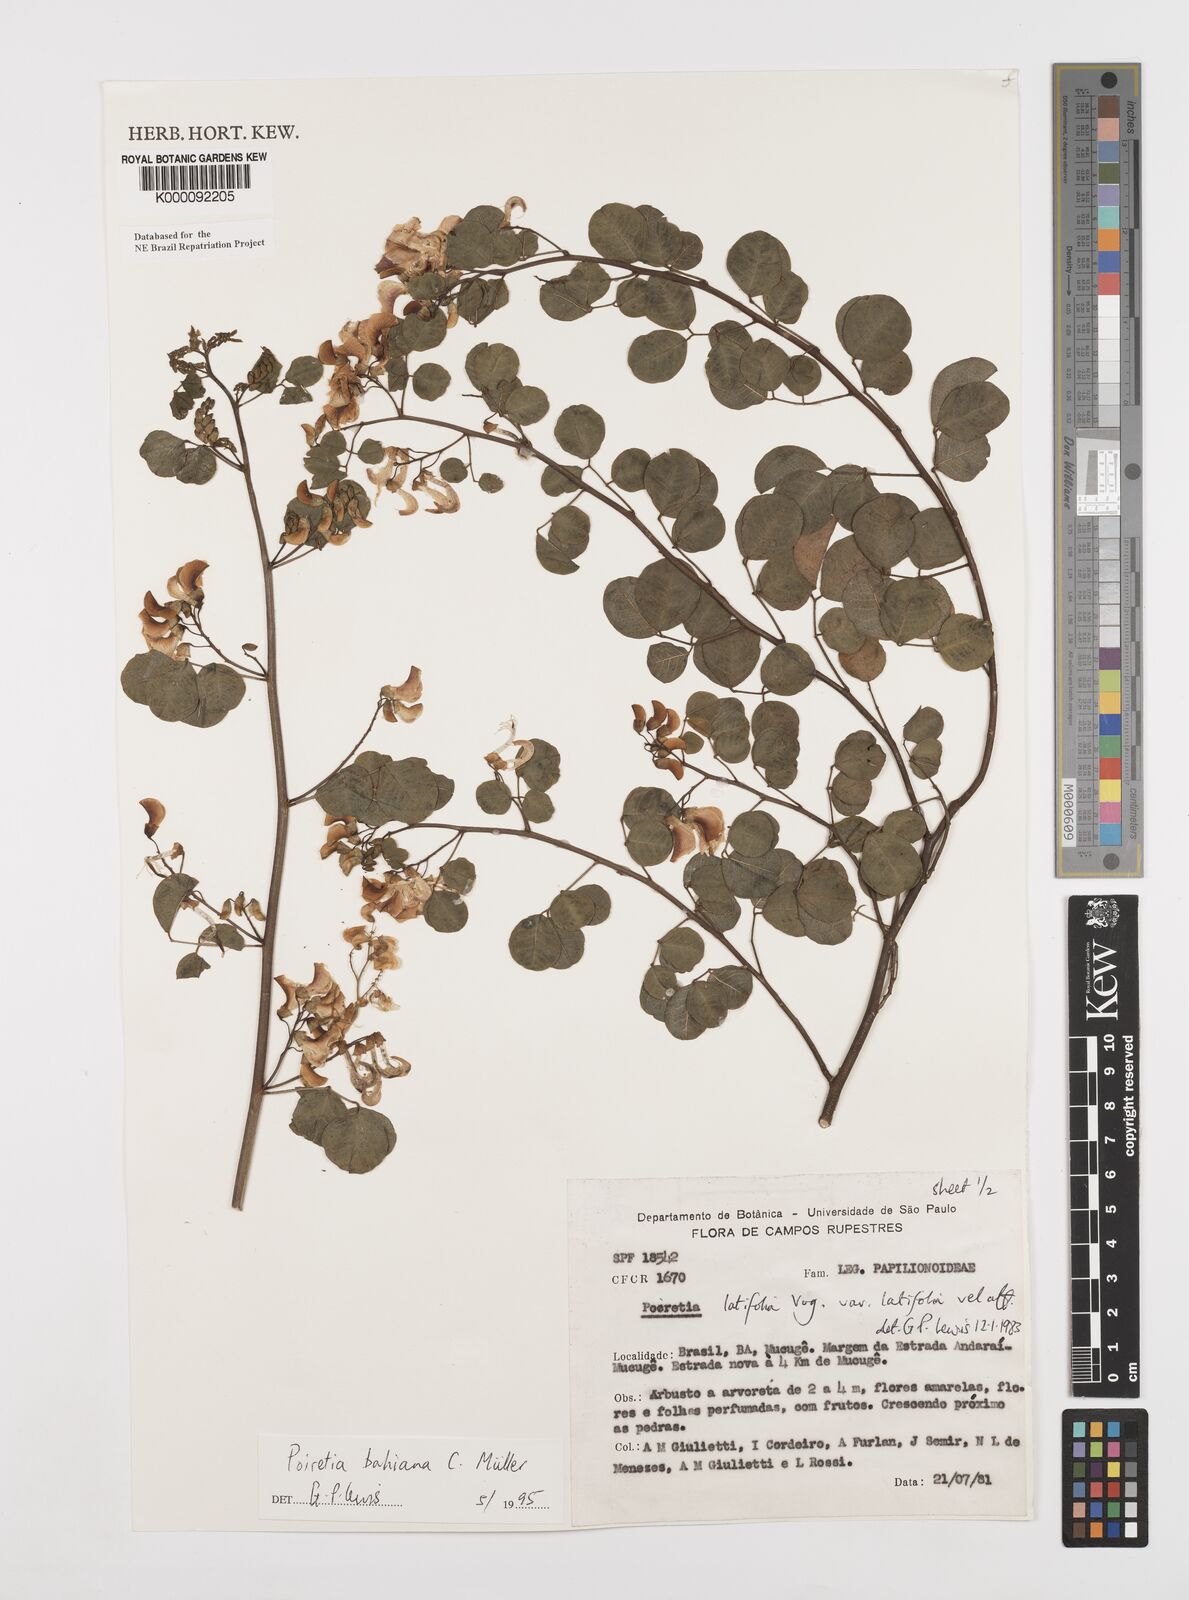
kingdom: Plantae
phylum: Tracheophyta
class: Magnoliopsida
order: Fabales
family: Fabaceae
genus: Poiretia
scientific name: Poiretia
